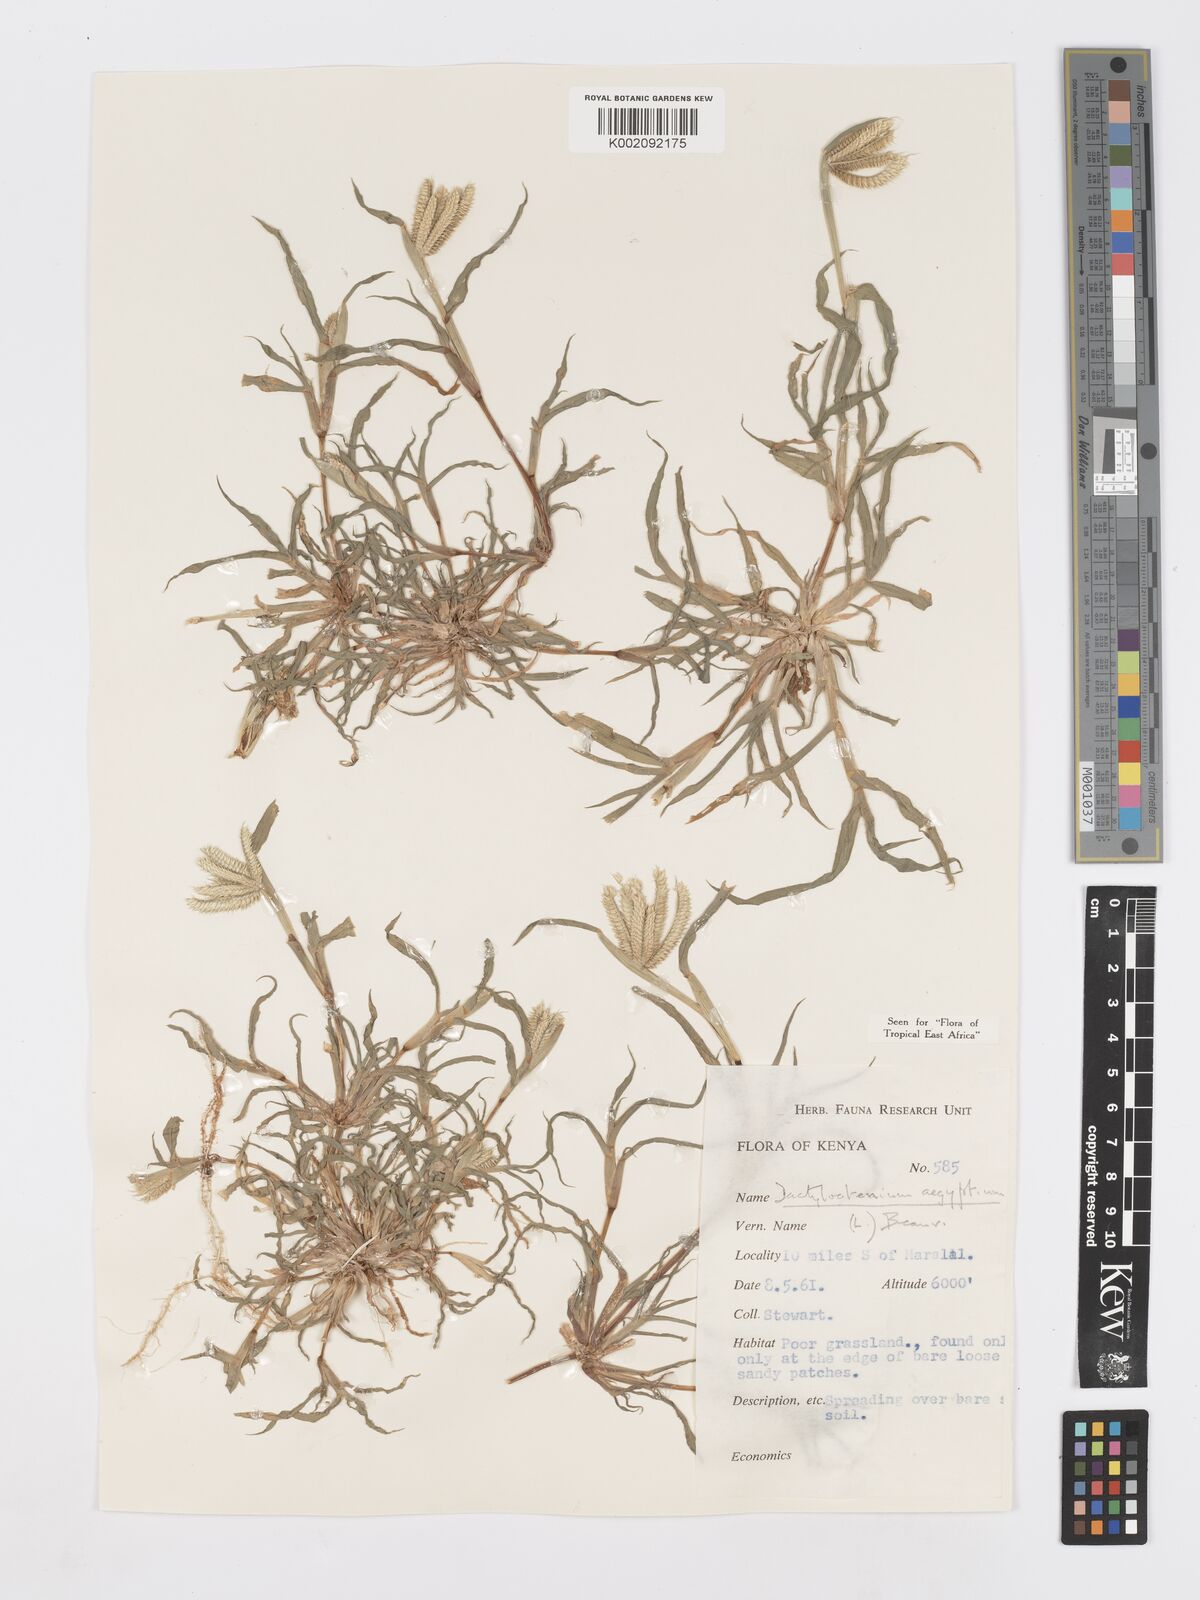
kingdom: Plantae
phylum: Tracheophyta
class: Liliopsida
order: Poales
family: Poaceae
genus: Dactyloctenium
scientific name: Dactyloctenium aegyptium
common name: Egyptian grass
